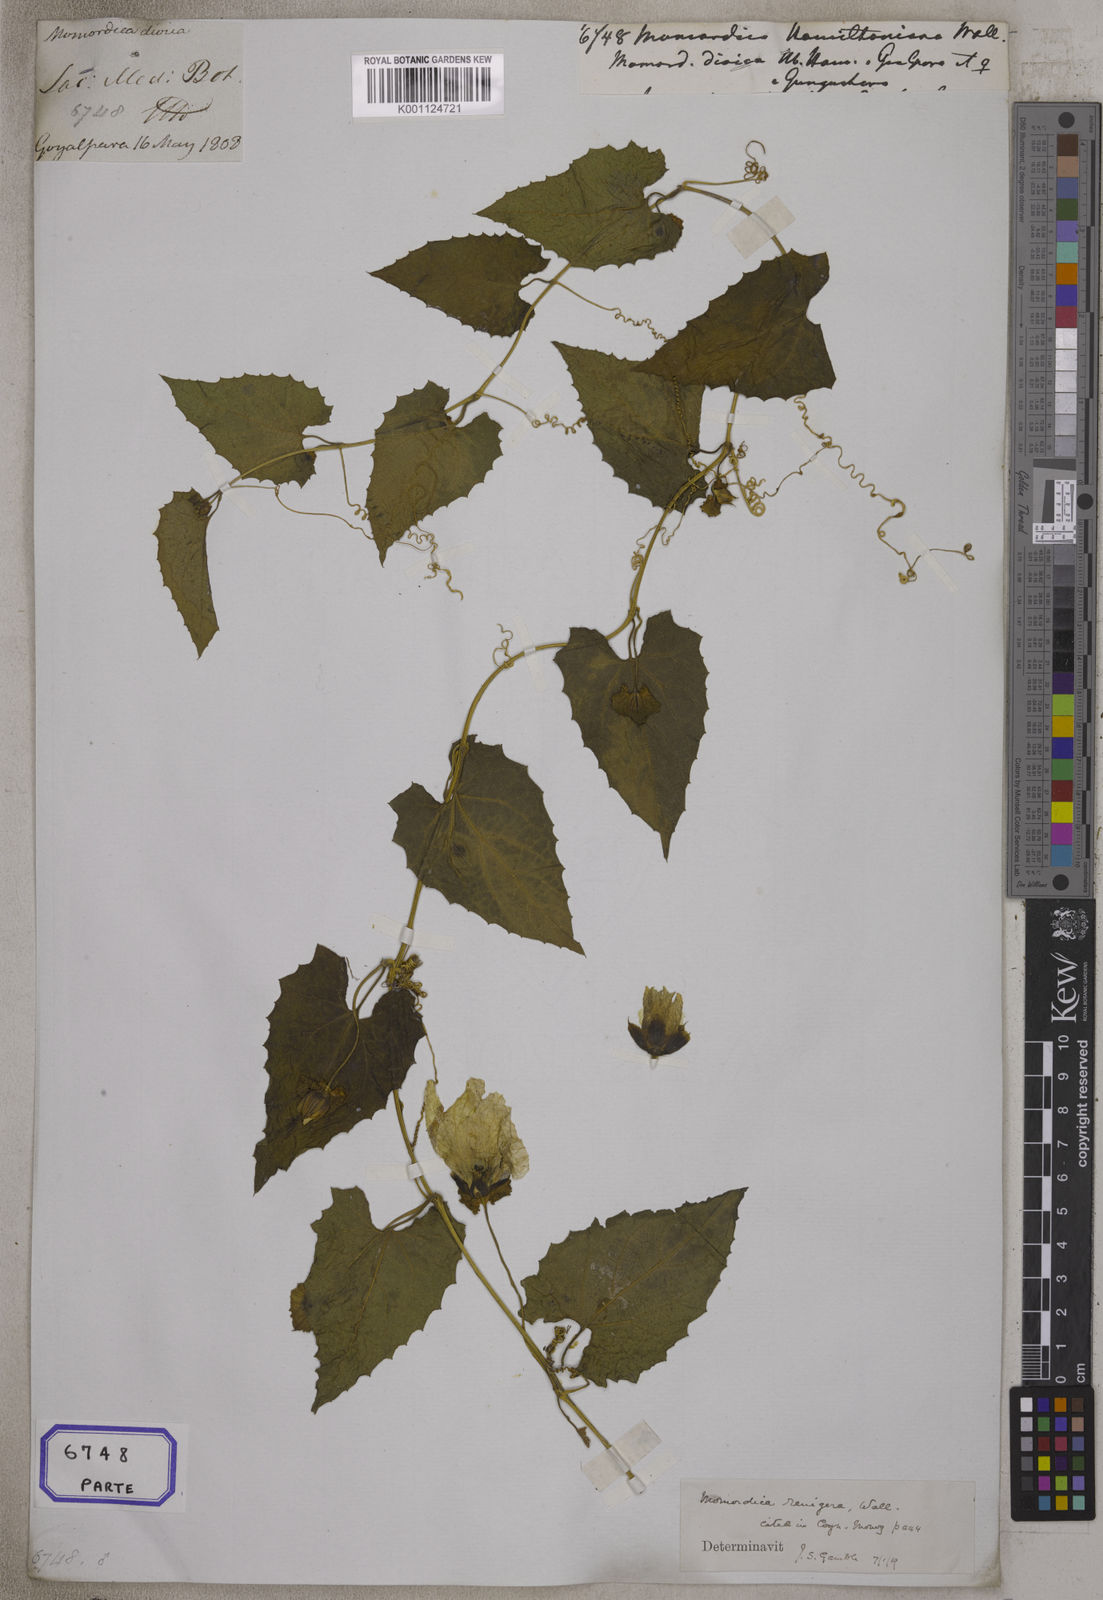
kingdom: Plantae
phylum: Tracheophyta
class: Magnoliopsida
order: Cucurbitales
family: Cucurbitaceae
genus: Momordica
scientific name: Momordica
